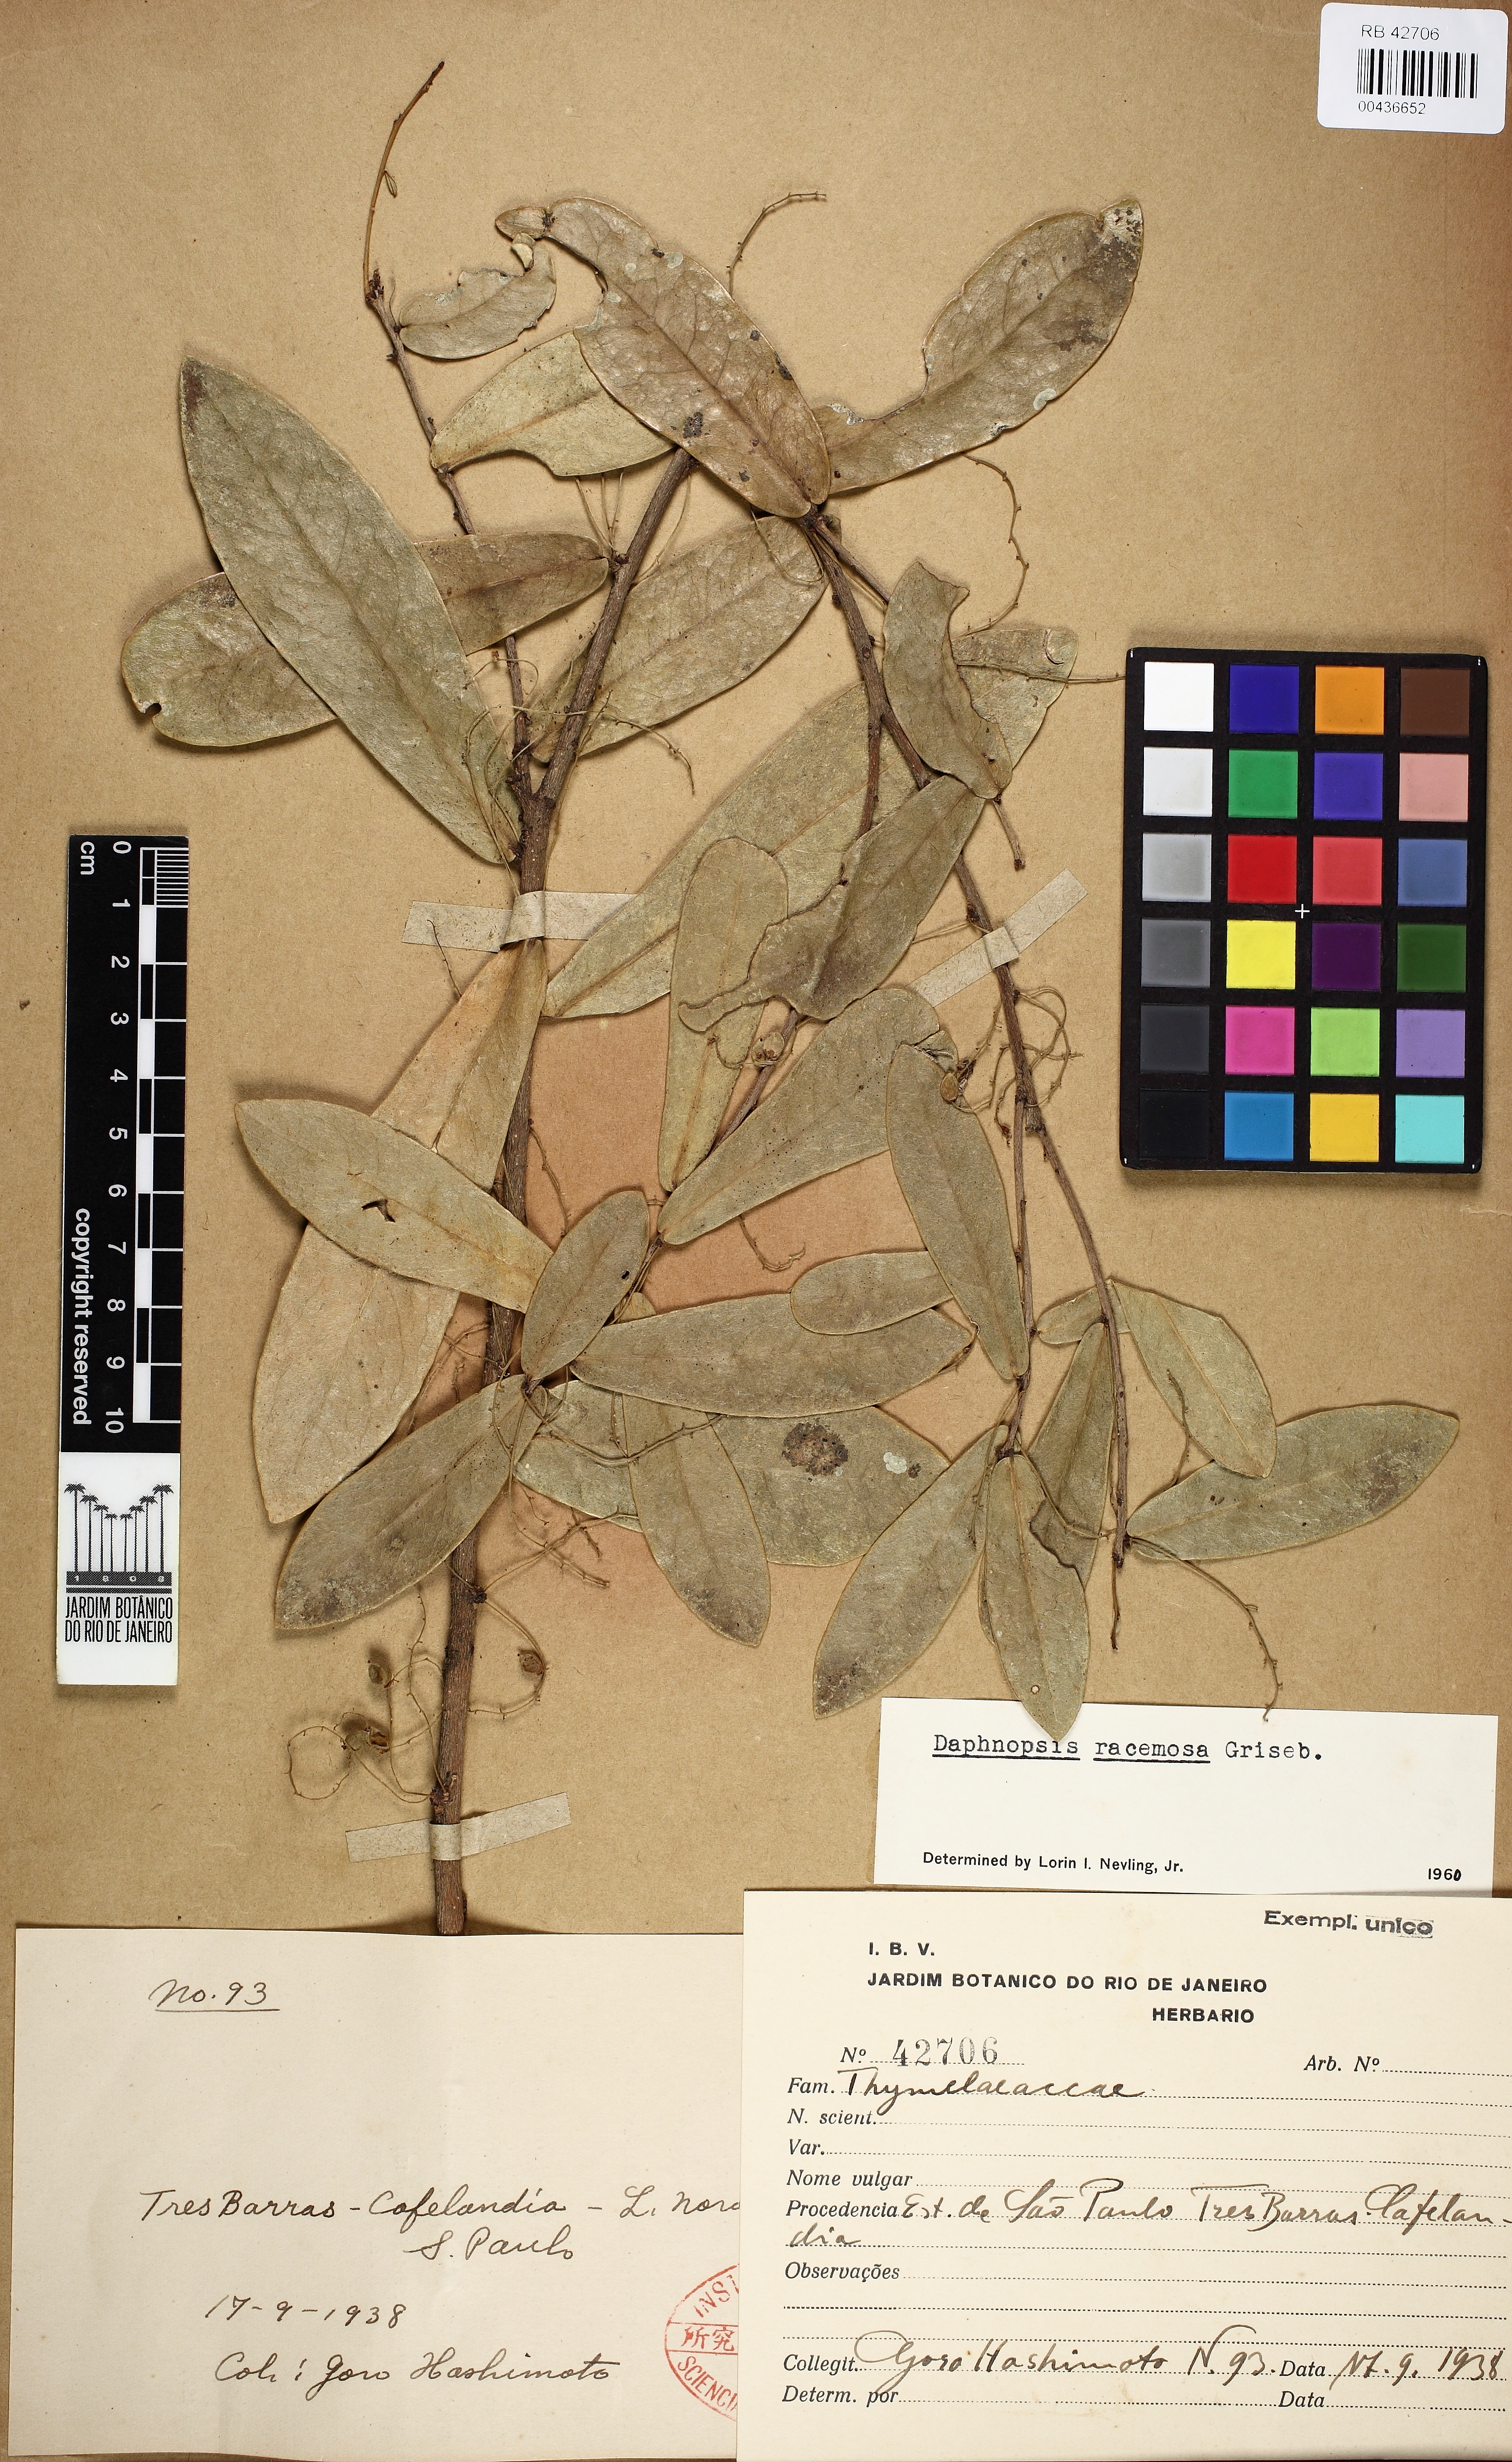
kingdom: Plantae
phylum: Tracheophyta
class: Magnoliopsida
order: Malvales
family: Thymelaeaceae
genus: Daphnopsis
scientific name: Daphnopsis racemosa
